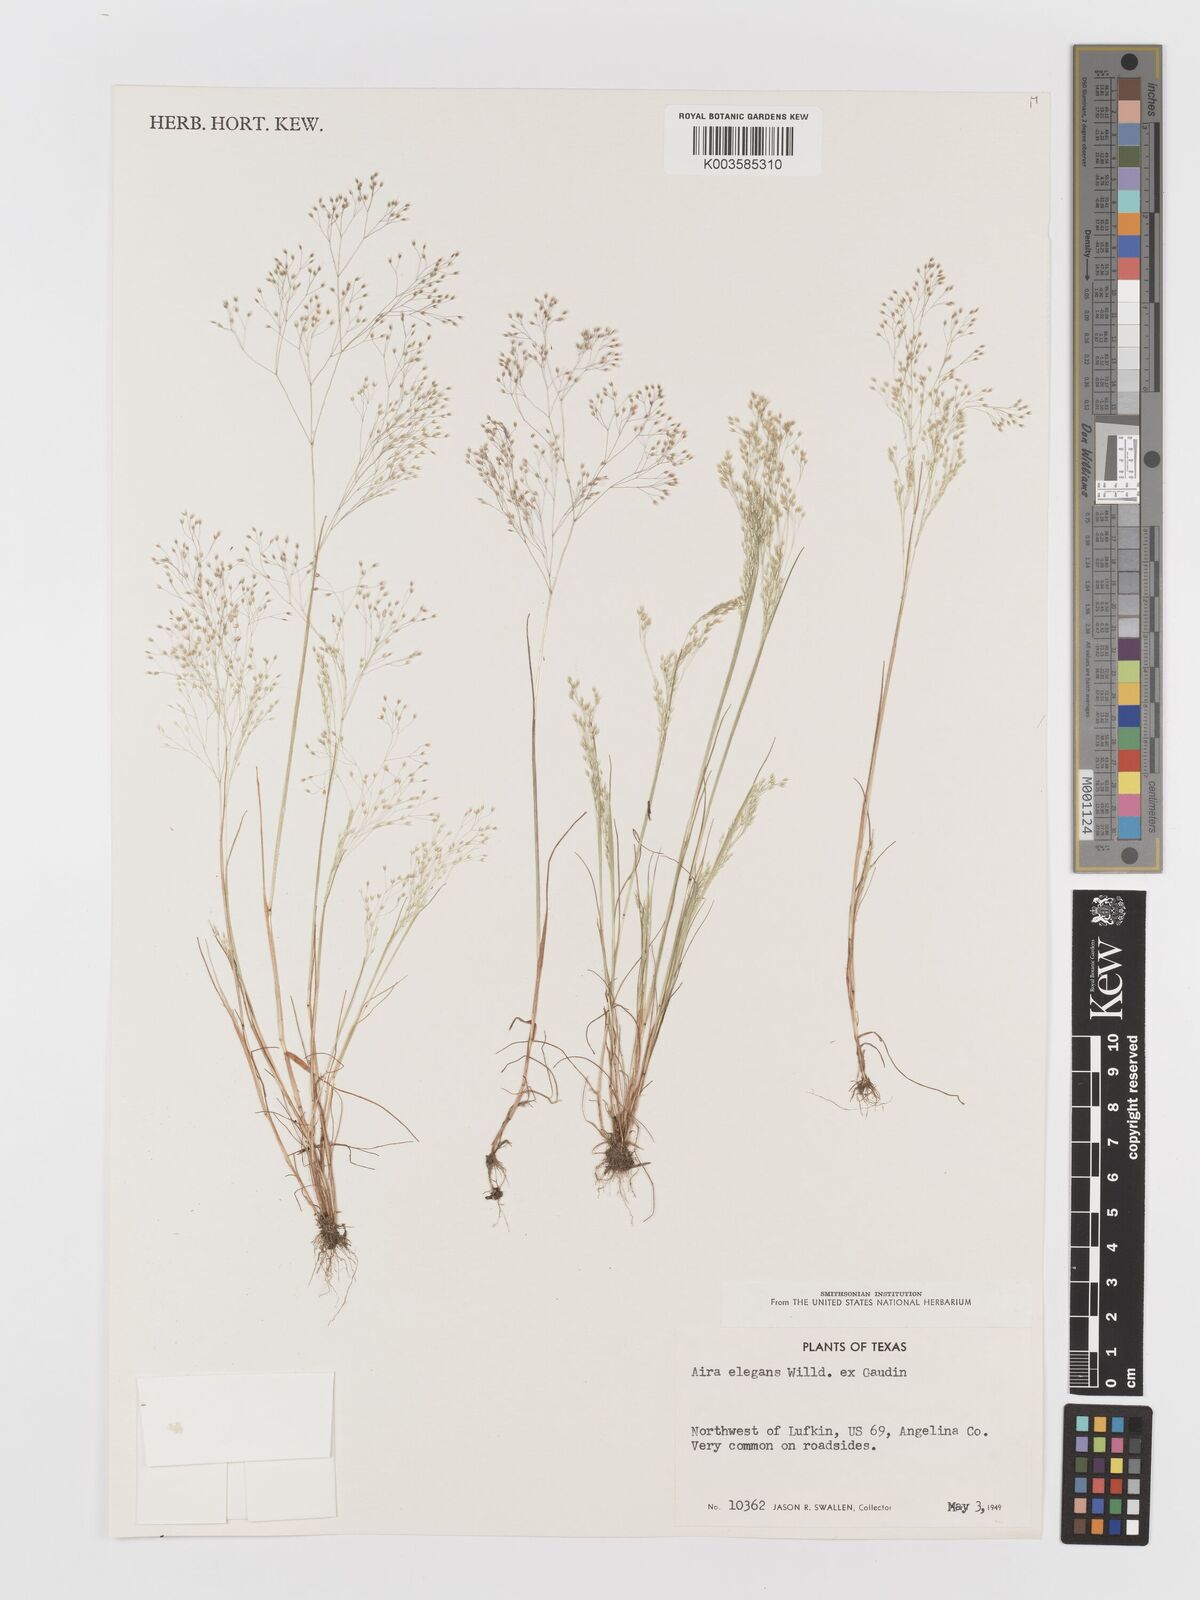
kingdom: Plantae
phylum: Tracheophyta
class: Liliopsida
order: Poales
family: Poaceae
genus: Aira
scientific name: Aira elegans
